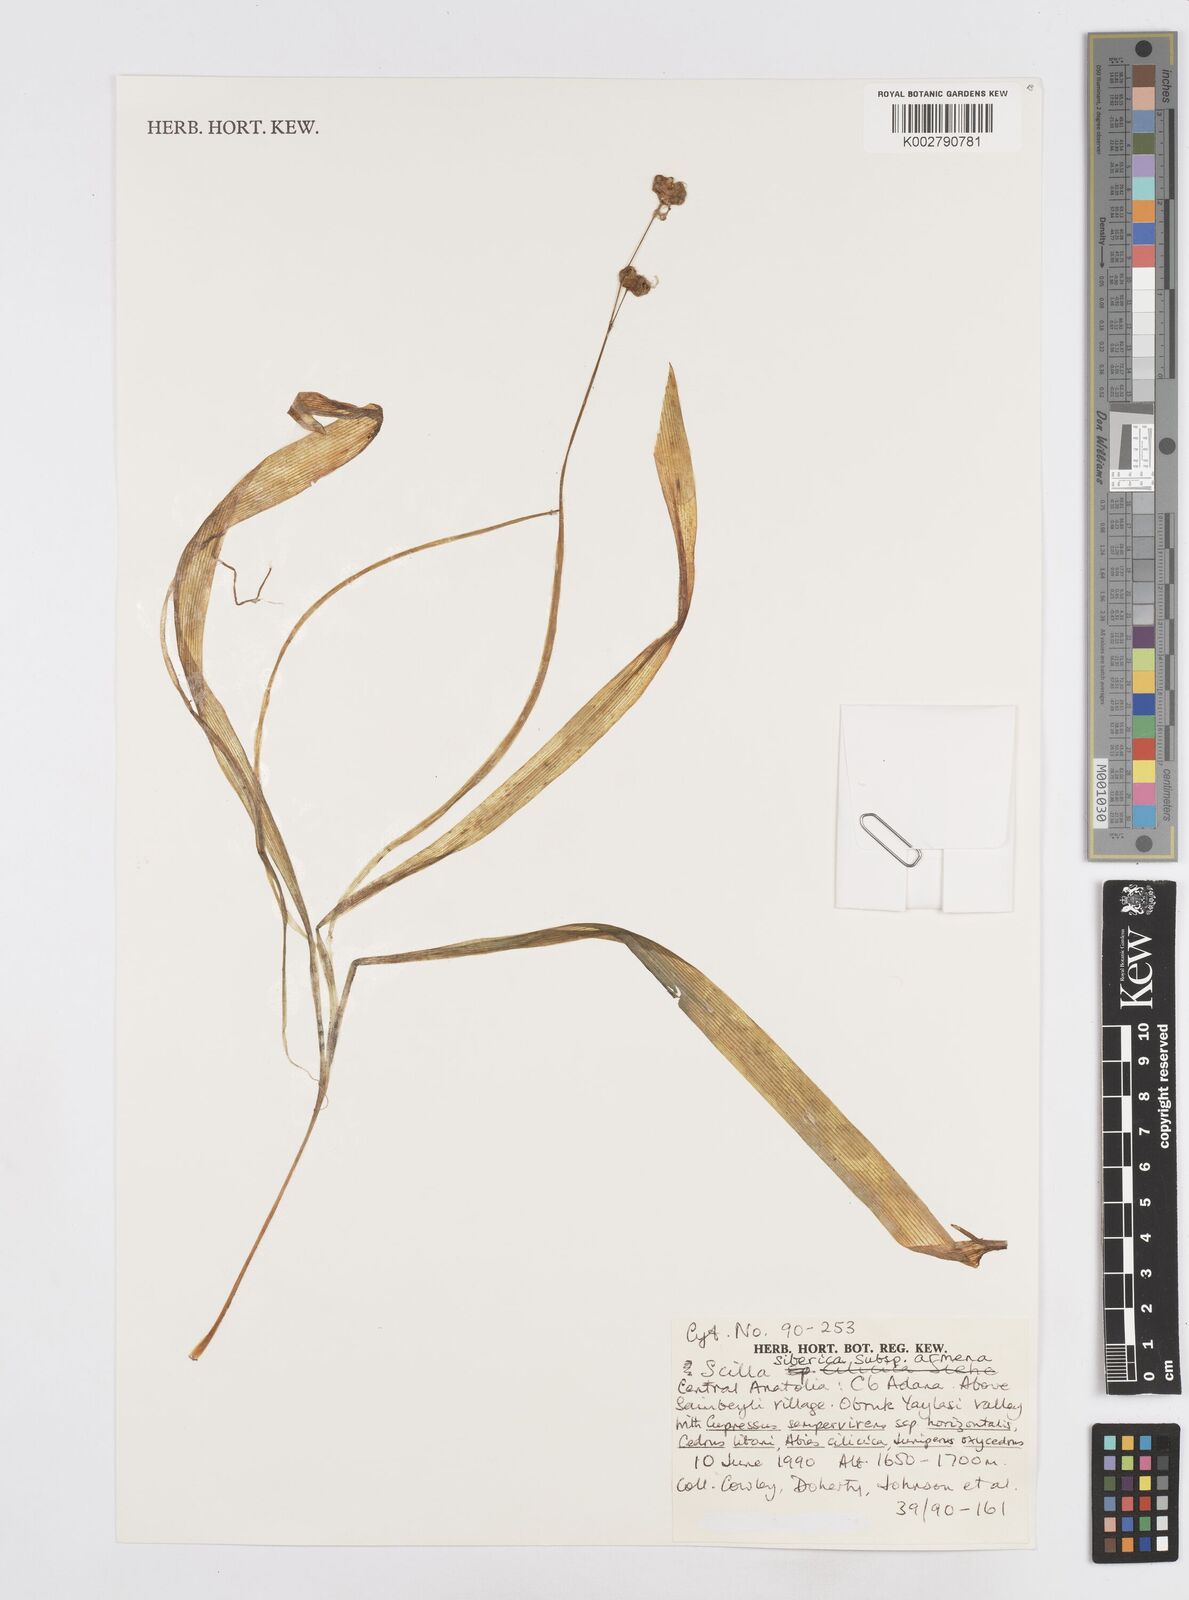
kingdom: Plantae
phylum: Tracheophyta
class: Liliopsida
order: Asparagales
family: Asparagaceae
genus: Scilla
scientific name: Scilla siberica
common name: Siberian squill
